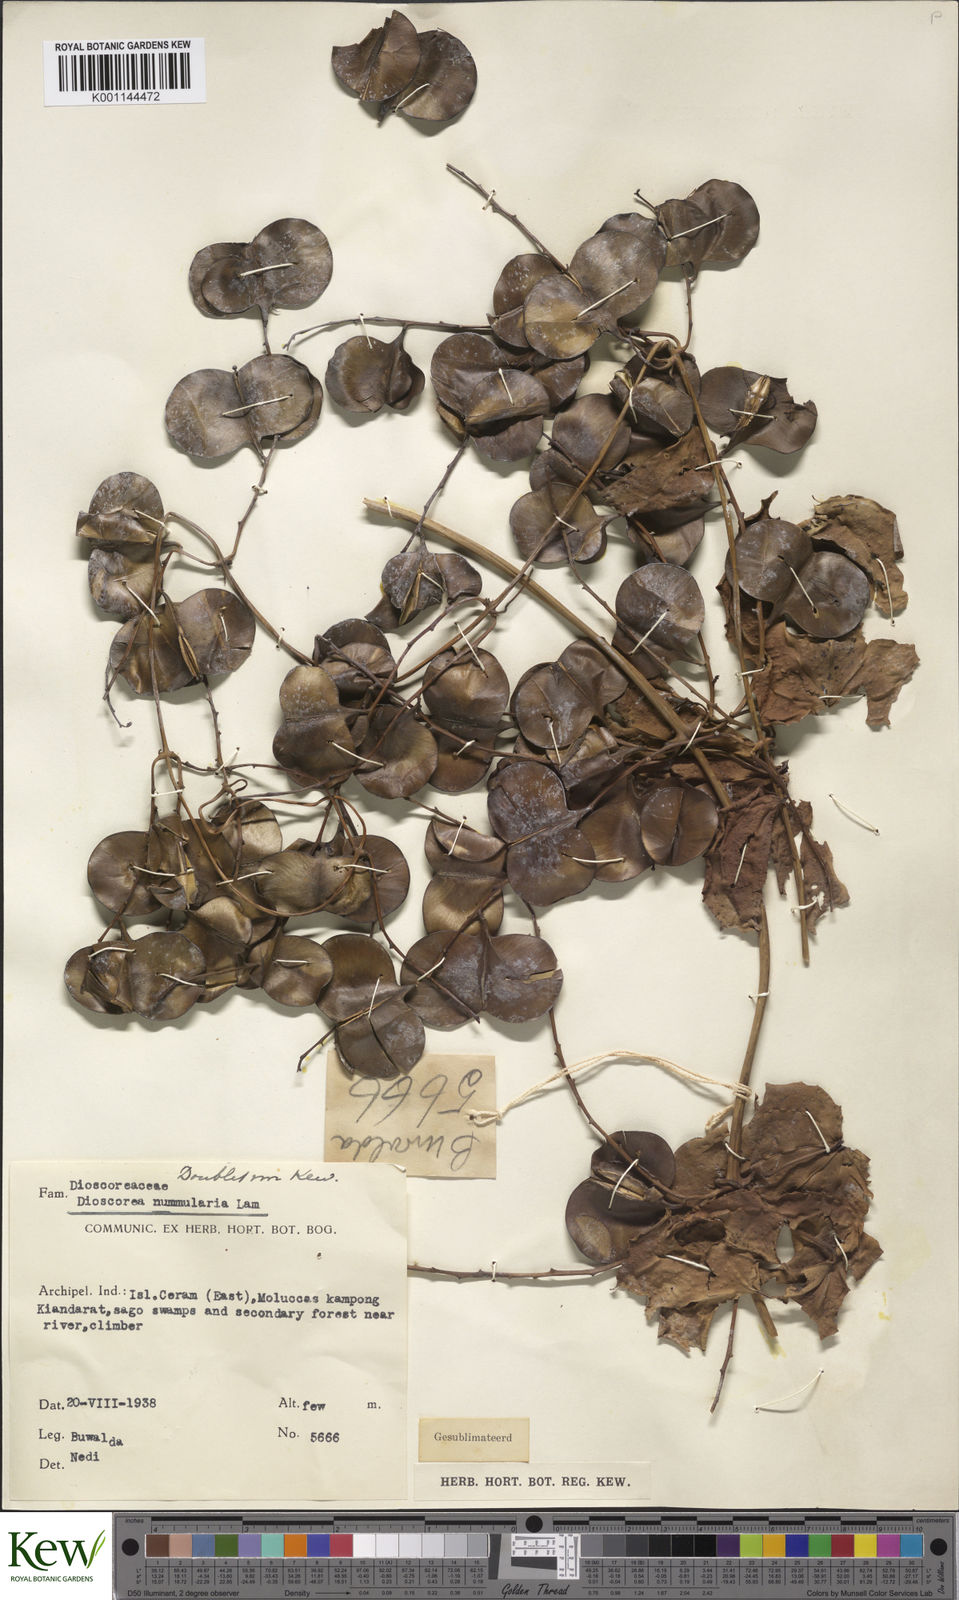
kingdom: Plantae
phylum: Tracheophyta
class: Liliopsida
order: Dioscoreales
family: Dioscoreaceae
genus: Dioscorea
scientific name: Dioscorea nummularia
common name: Pacific yam
